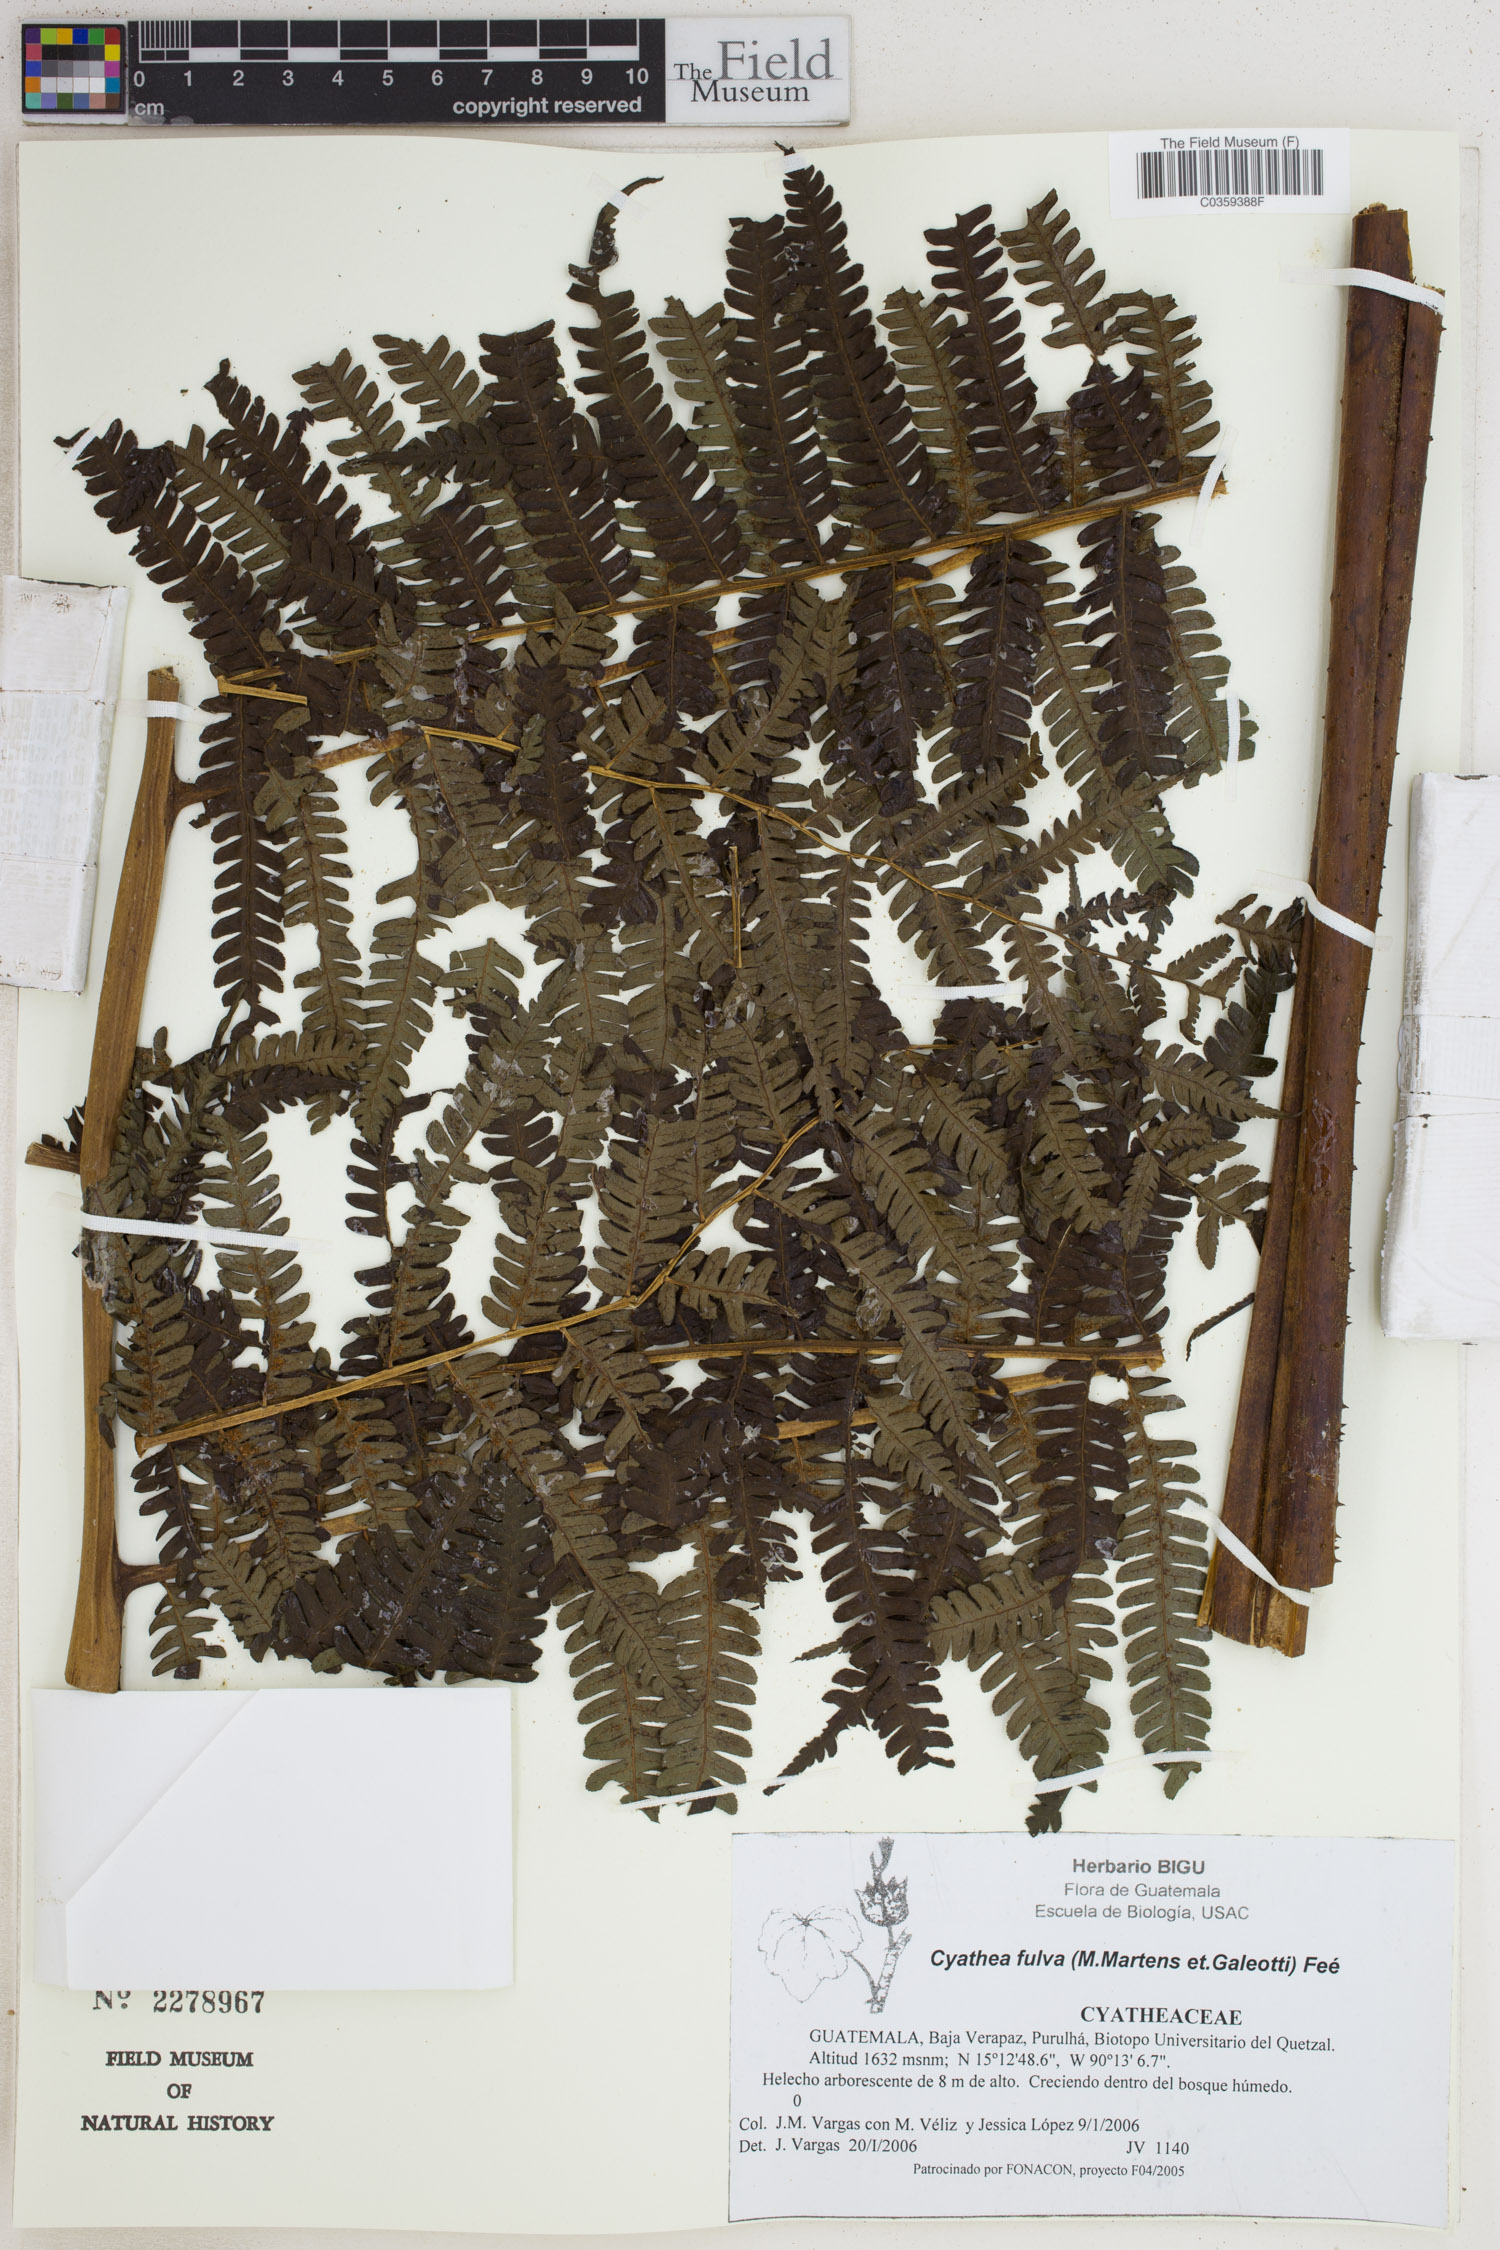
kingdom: Plantae
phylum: Tracheophyta
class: Polypodiopsida
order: Cyatheales
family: Cyatheaceae
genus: Cyathea
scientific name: Cyathea fulva
